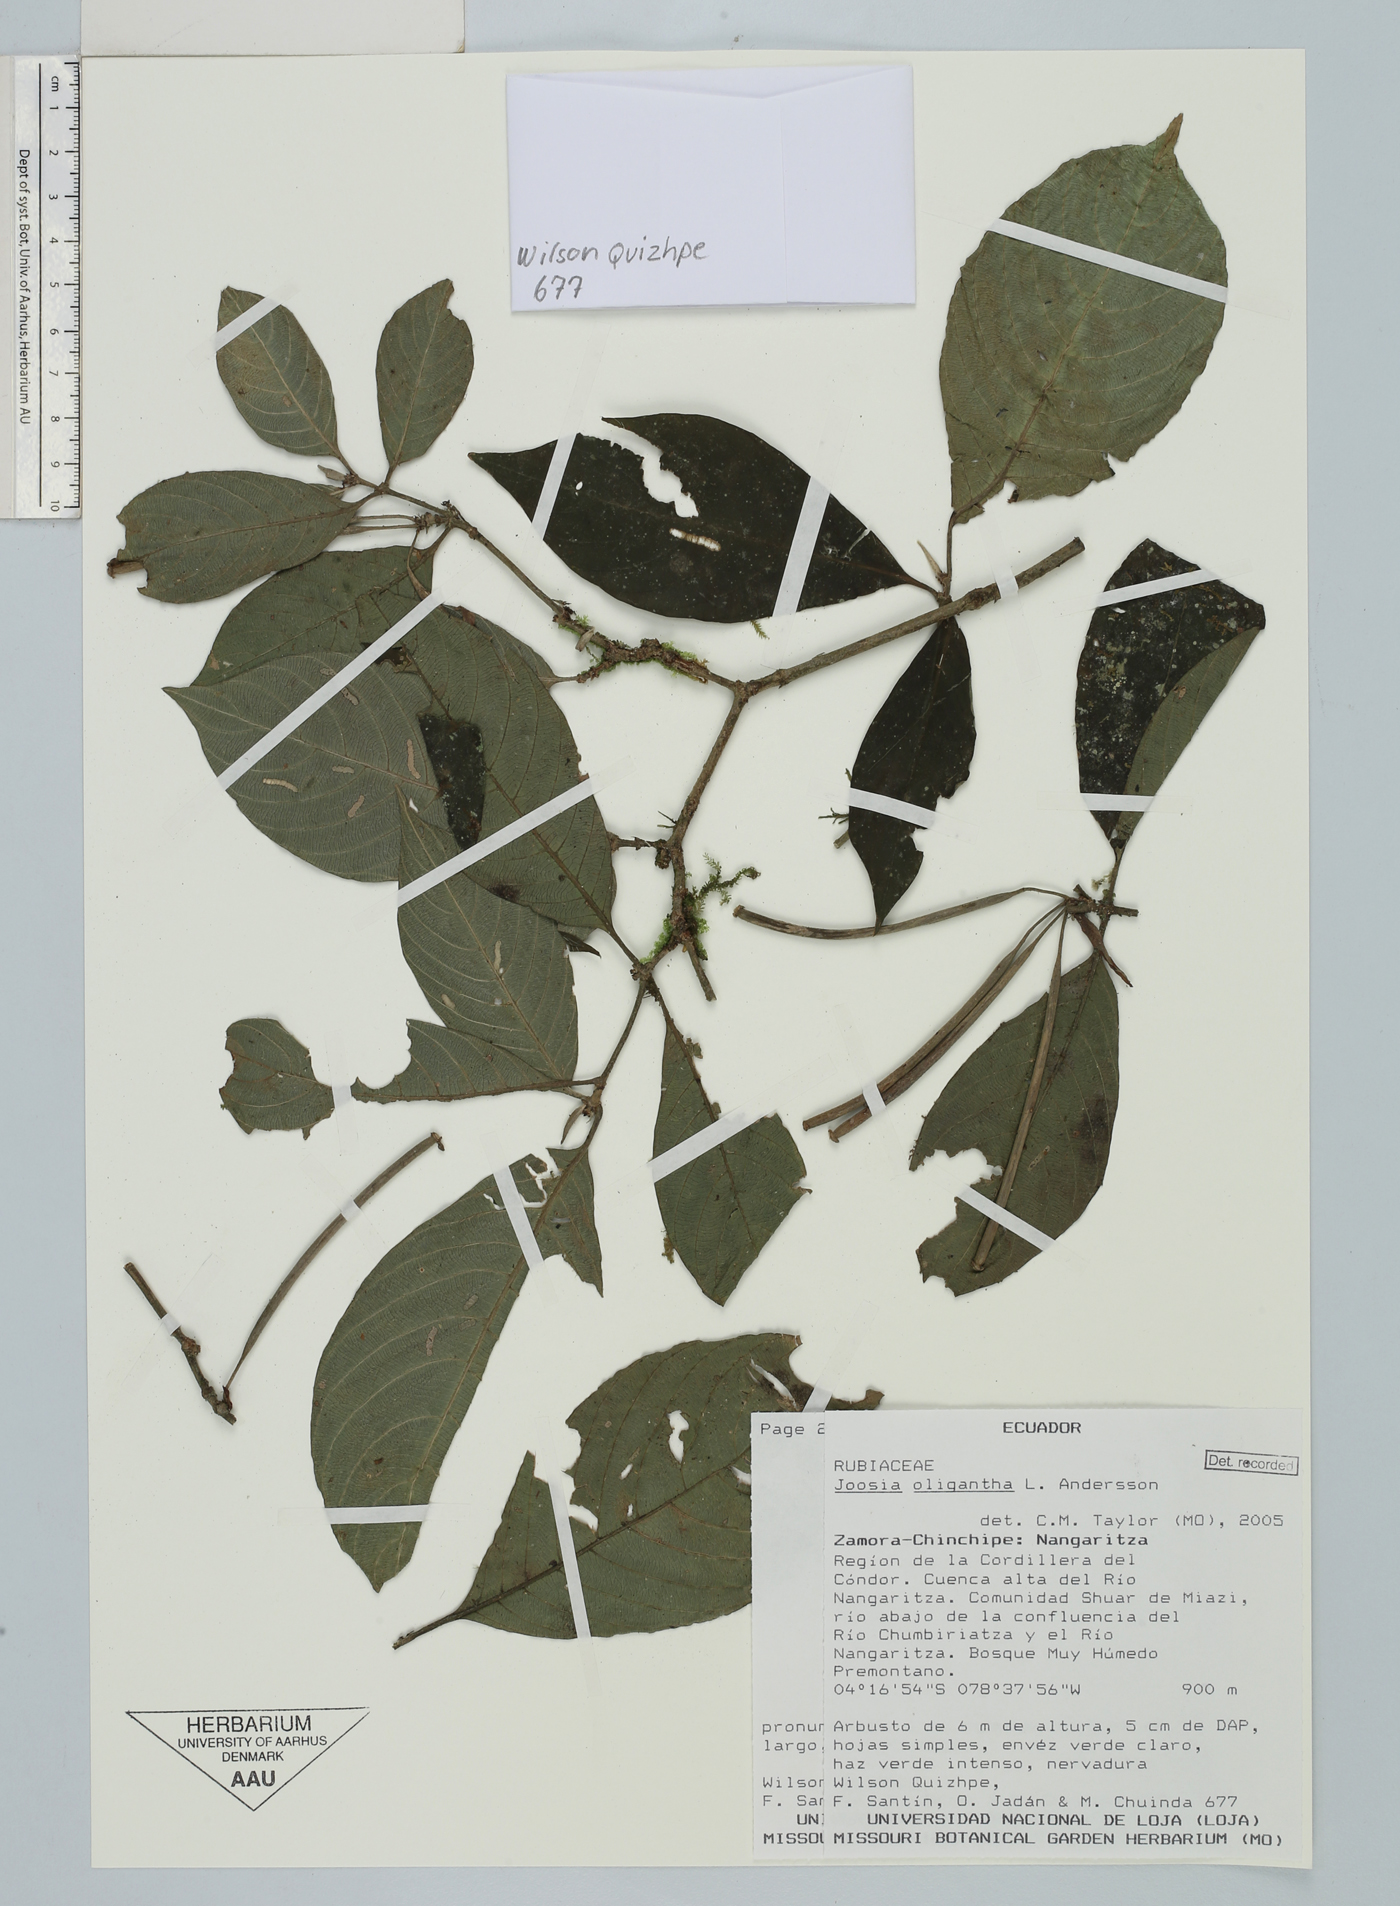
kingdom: Plantae
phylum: Tracheophyta
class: Magnoliopsida
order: Gentianales
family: Rubiaceae
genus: Joosia
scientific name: Joosia oligantha
